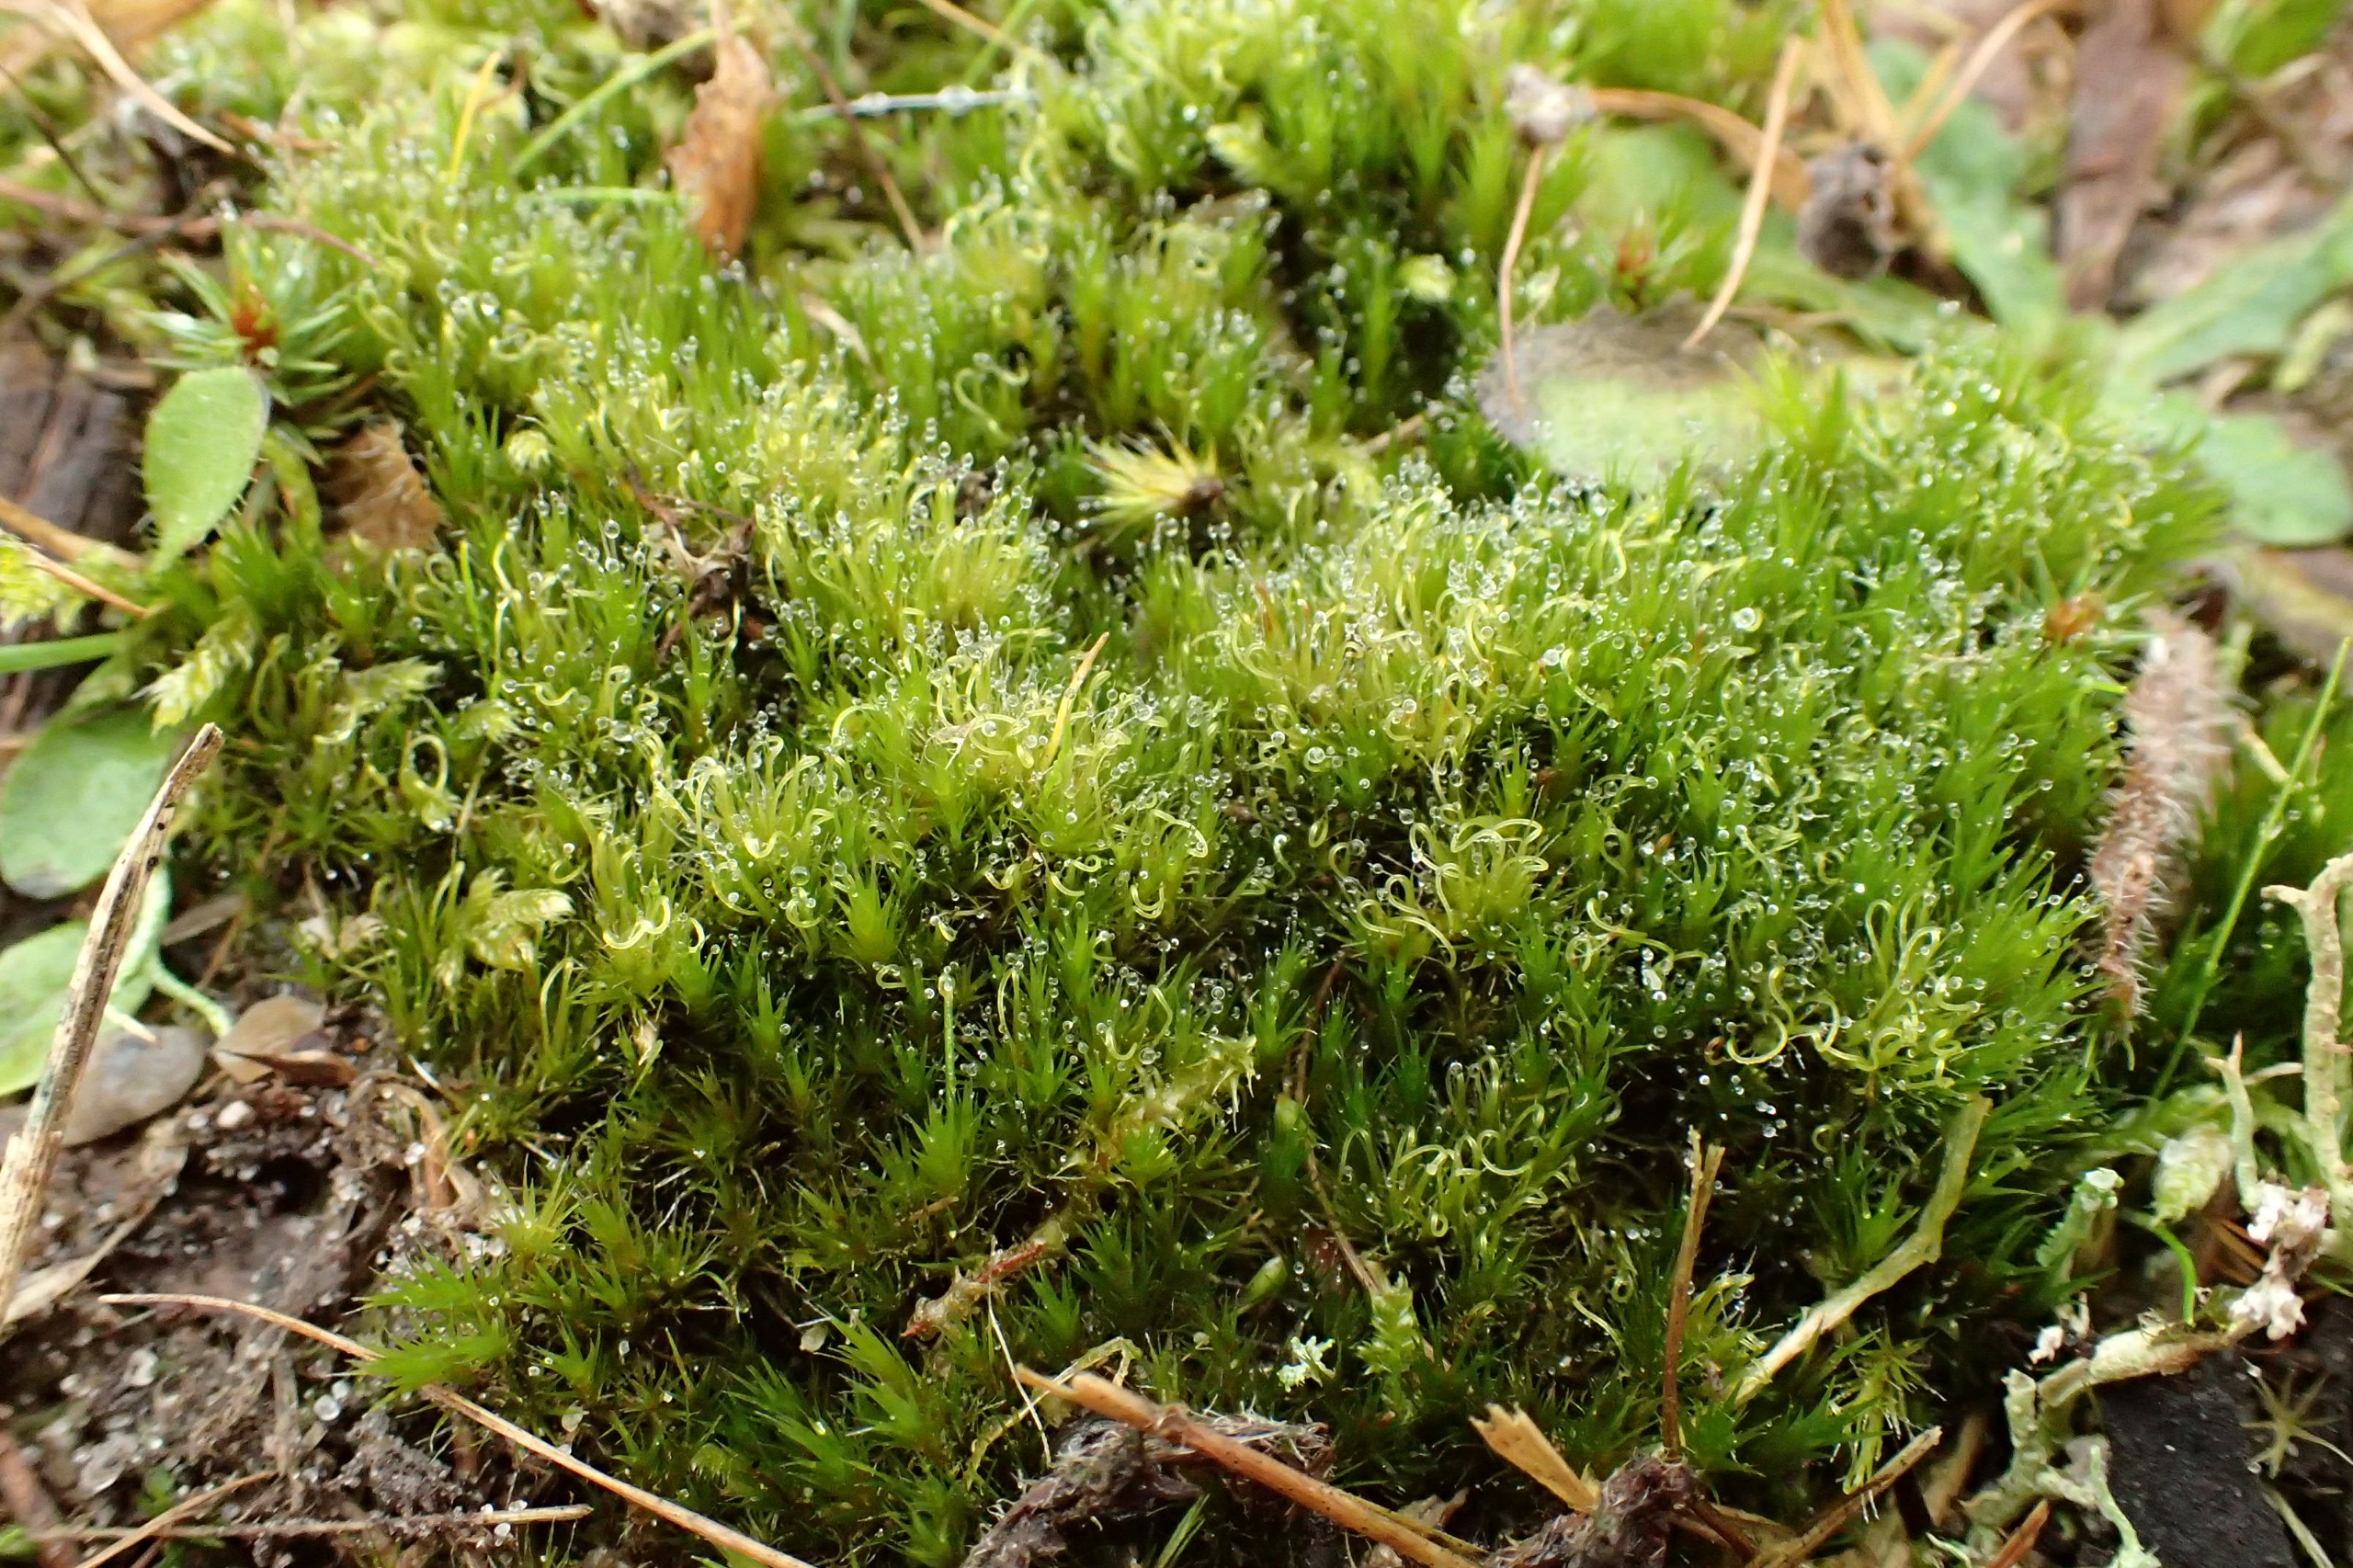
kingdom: Plantae
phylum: Bryophyta
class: Bryopsida
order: Dicranales
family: Leucobryaceae
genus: Campylopus
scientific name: Campylopus introflexus
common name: Stjerne-bredribbe
